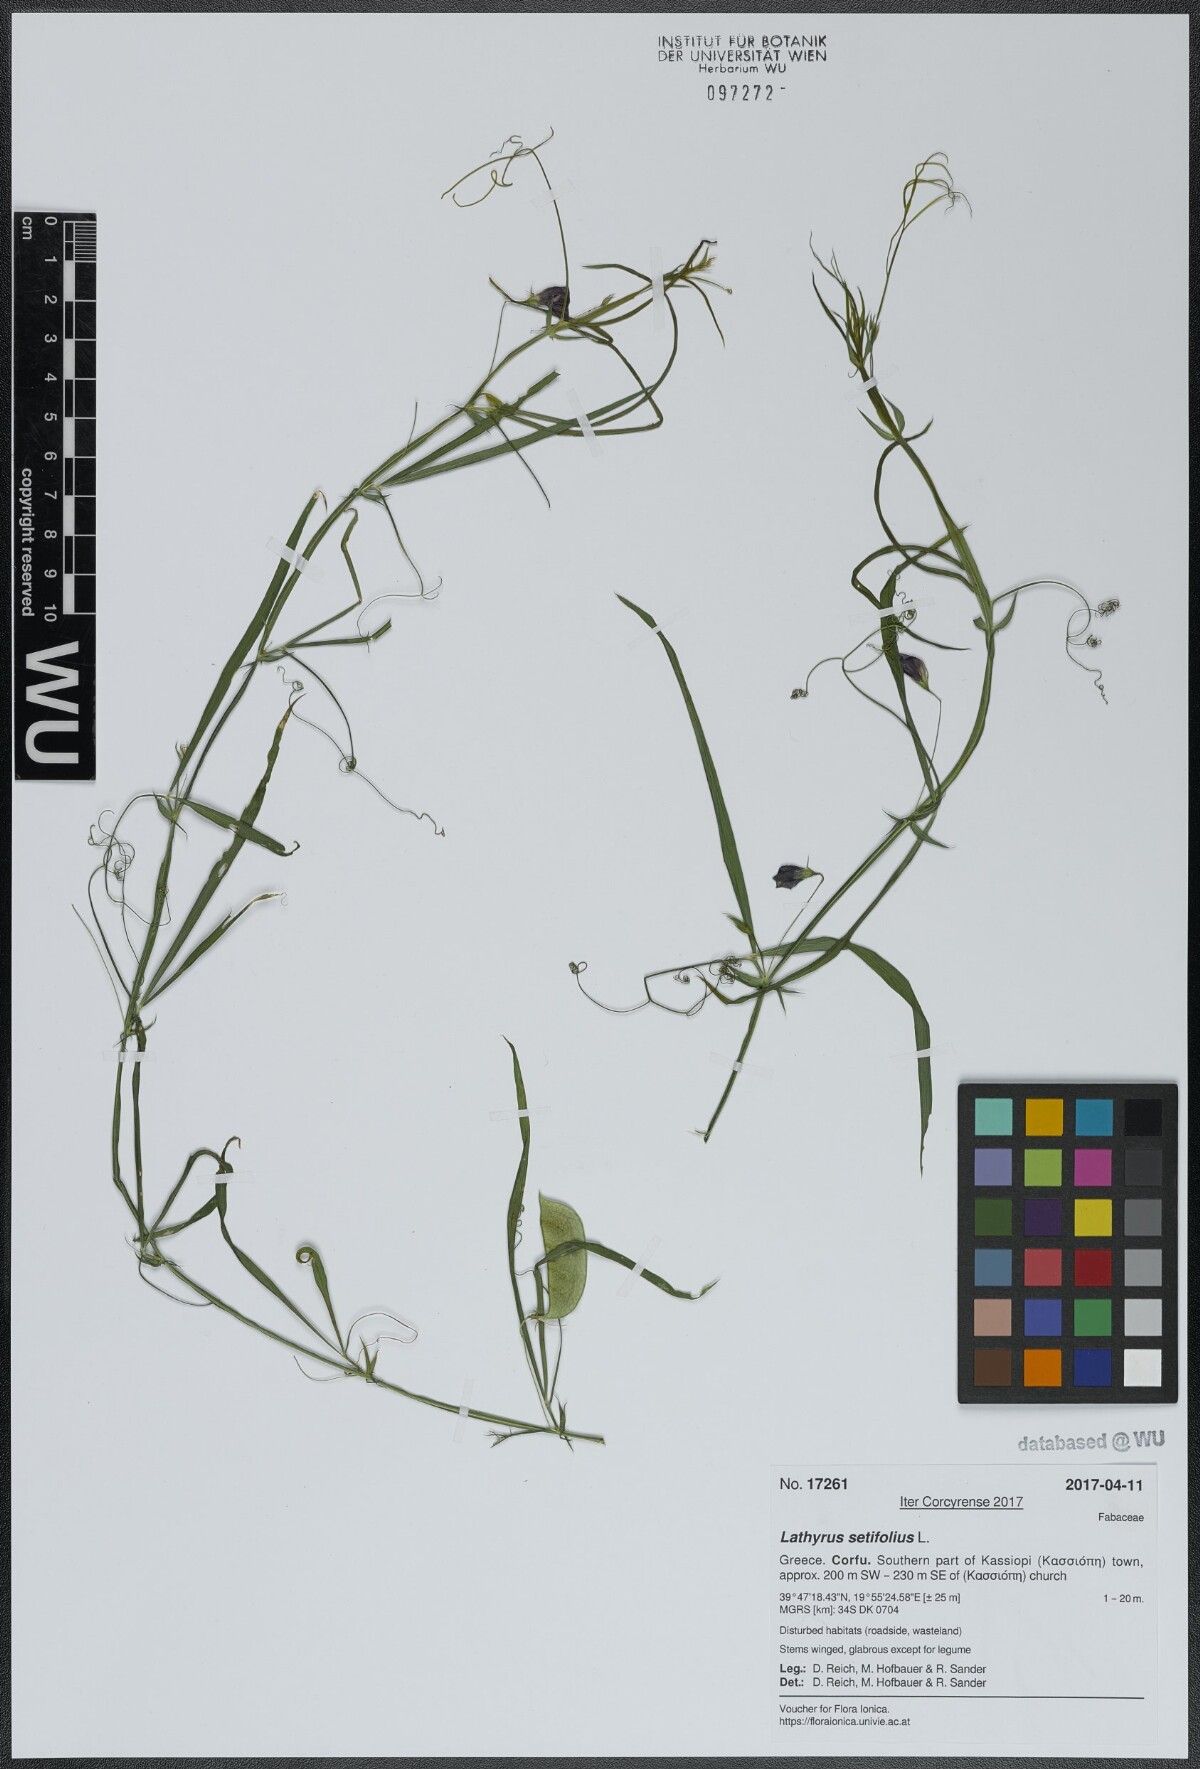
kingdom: Plantae
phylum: Tracheophyta
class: Magnoliopsida
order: Fabales
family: Fabaceae
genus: Lathyrus
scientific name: Lathyrus setifolius
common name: Brown vetchling
